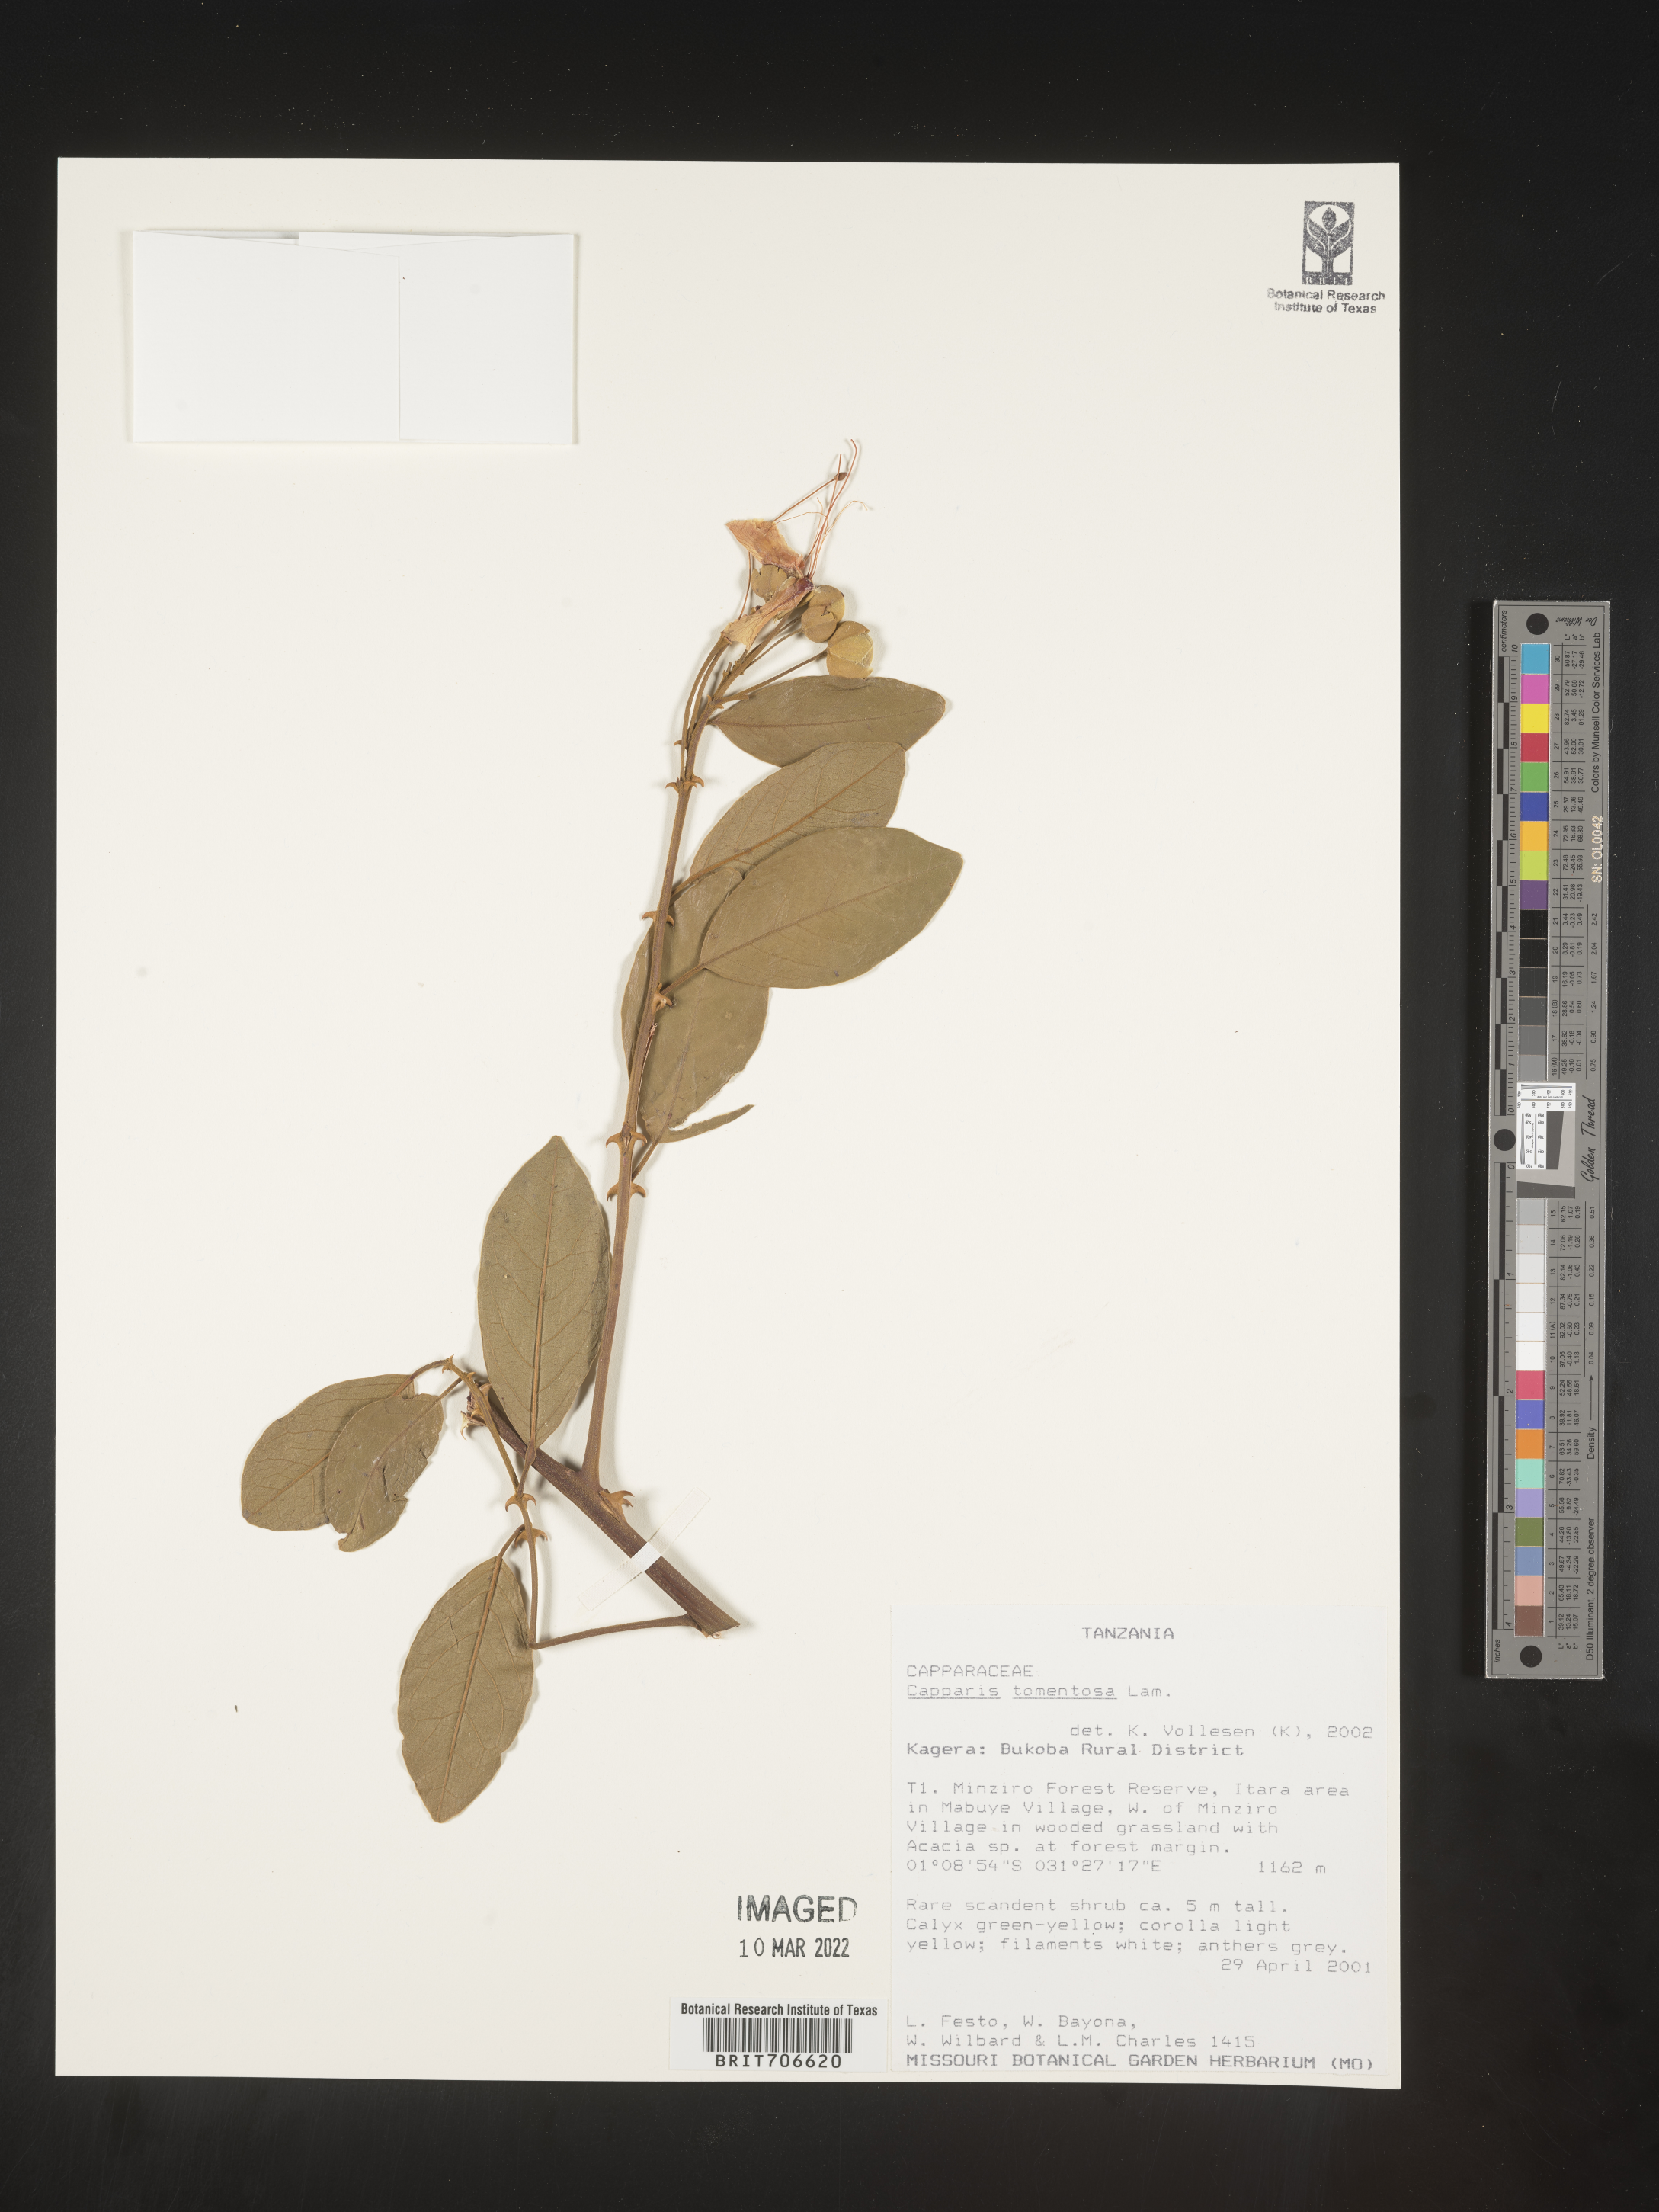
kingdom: Plantae
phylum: Tracheophyta
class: Magnoliopsida
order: Brassicales
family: Capparaceae
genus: Capparis
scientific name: Capparis
